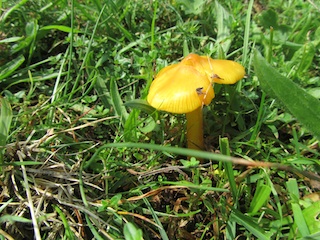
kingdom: Fungi
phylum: Basidiomycota
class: Agaricomycetes
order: Agaricales
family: Hygrophoraceae
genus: Hygrocybe
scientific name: Hygrocybe acutoconica
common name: spidspuklet vokshat
